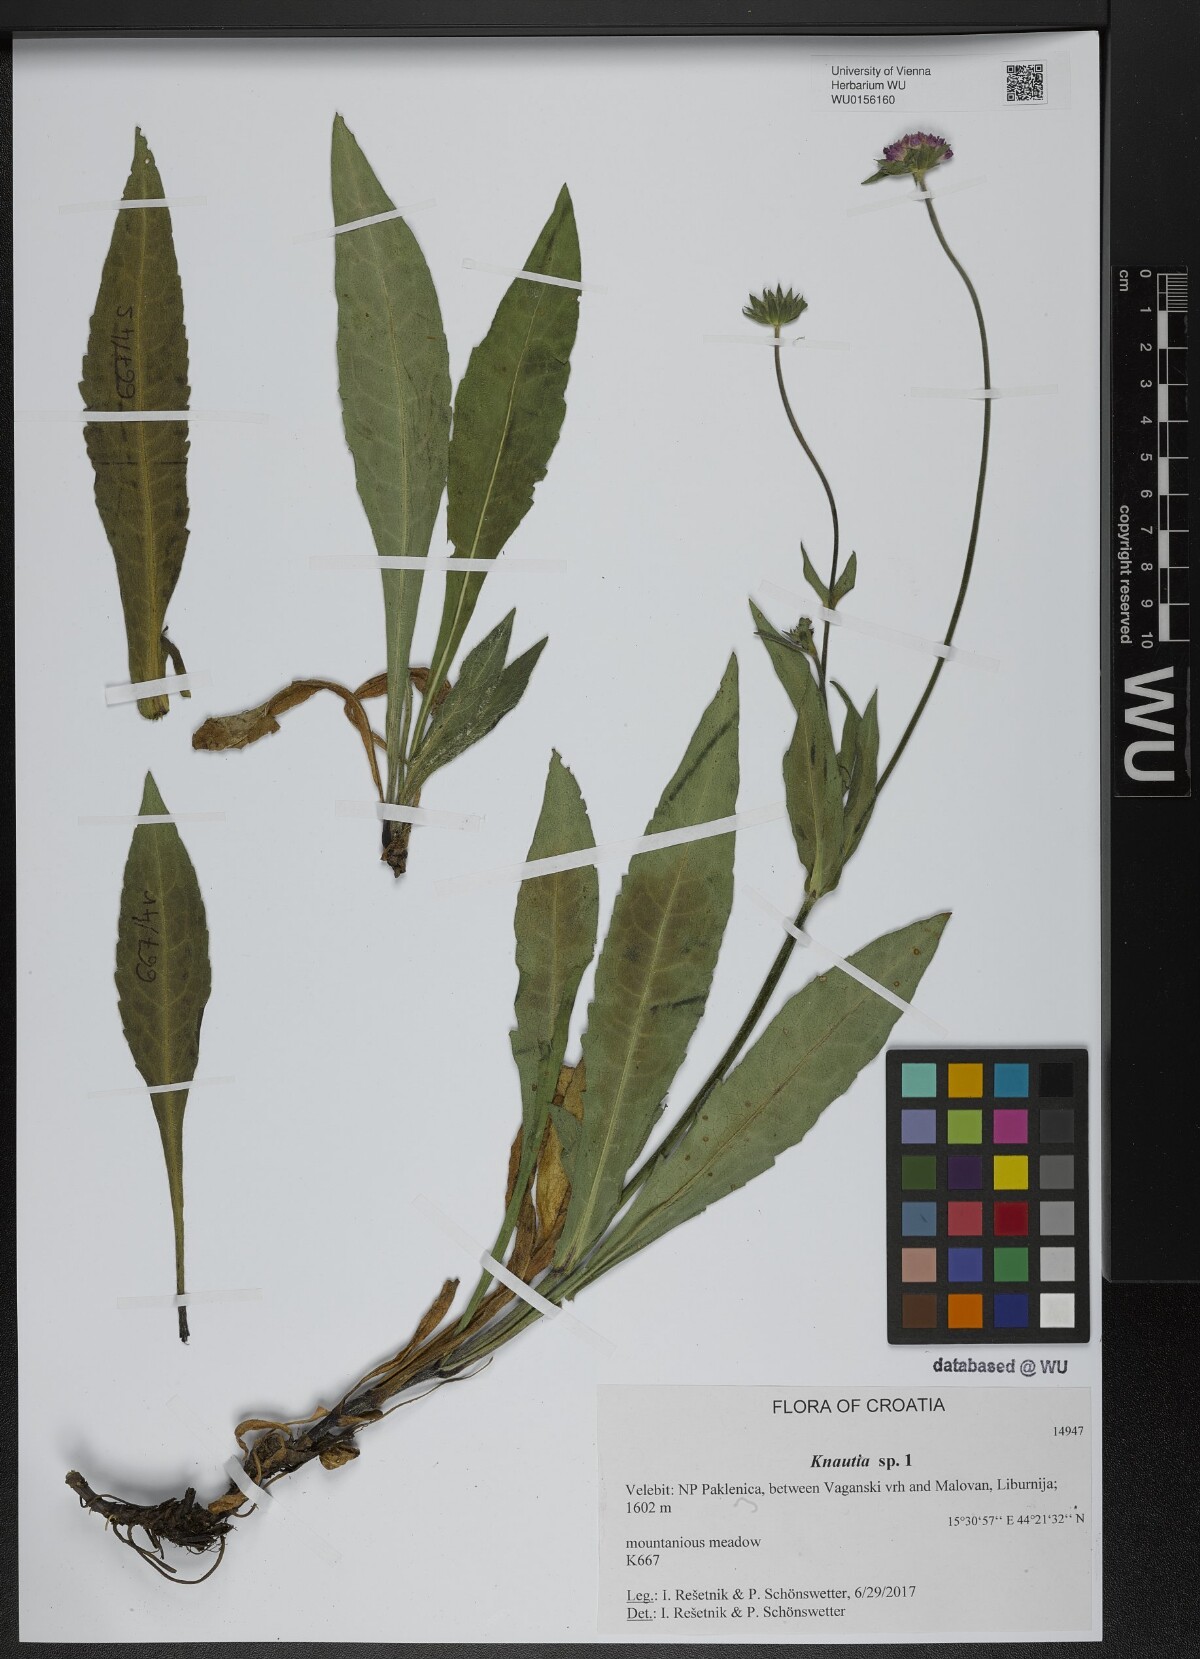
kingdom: Plantae
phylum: Tracheophyta
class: Magnoliopsida
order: Dipsacales
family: Caprifoliaceae
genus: Knautia
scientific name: Knautia
